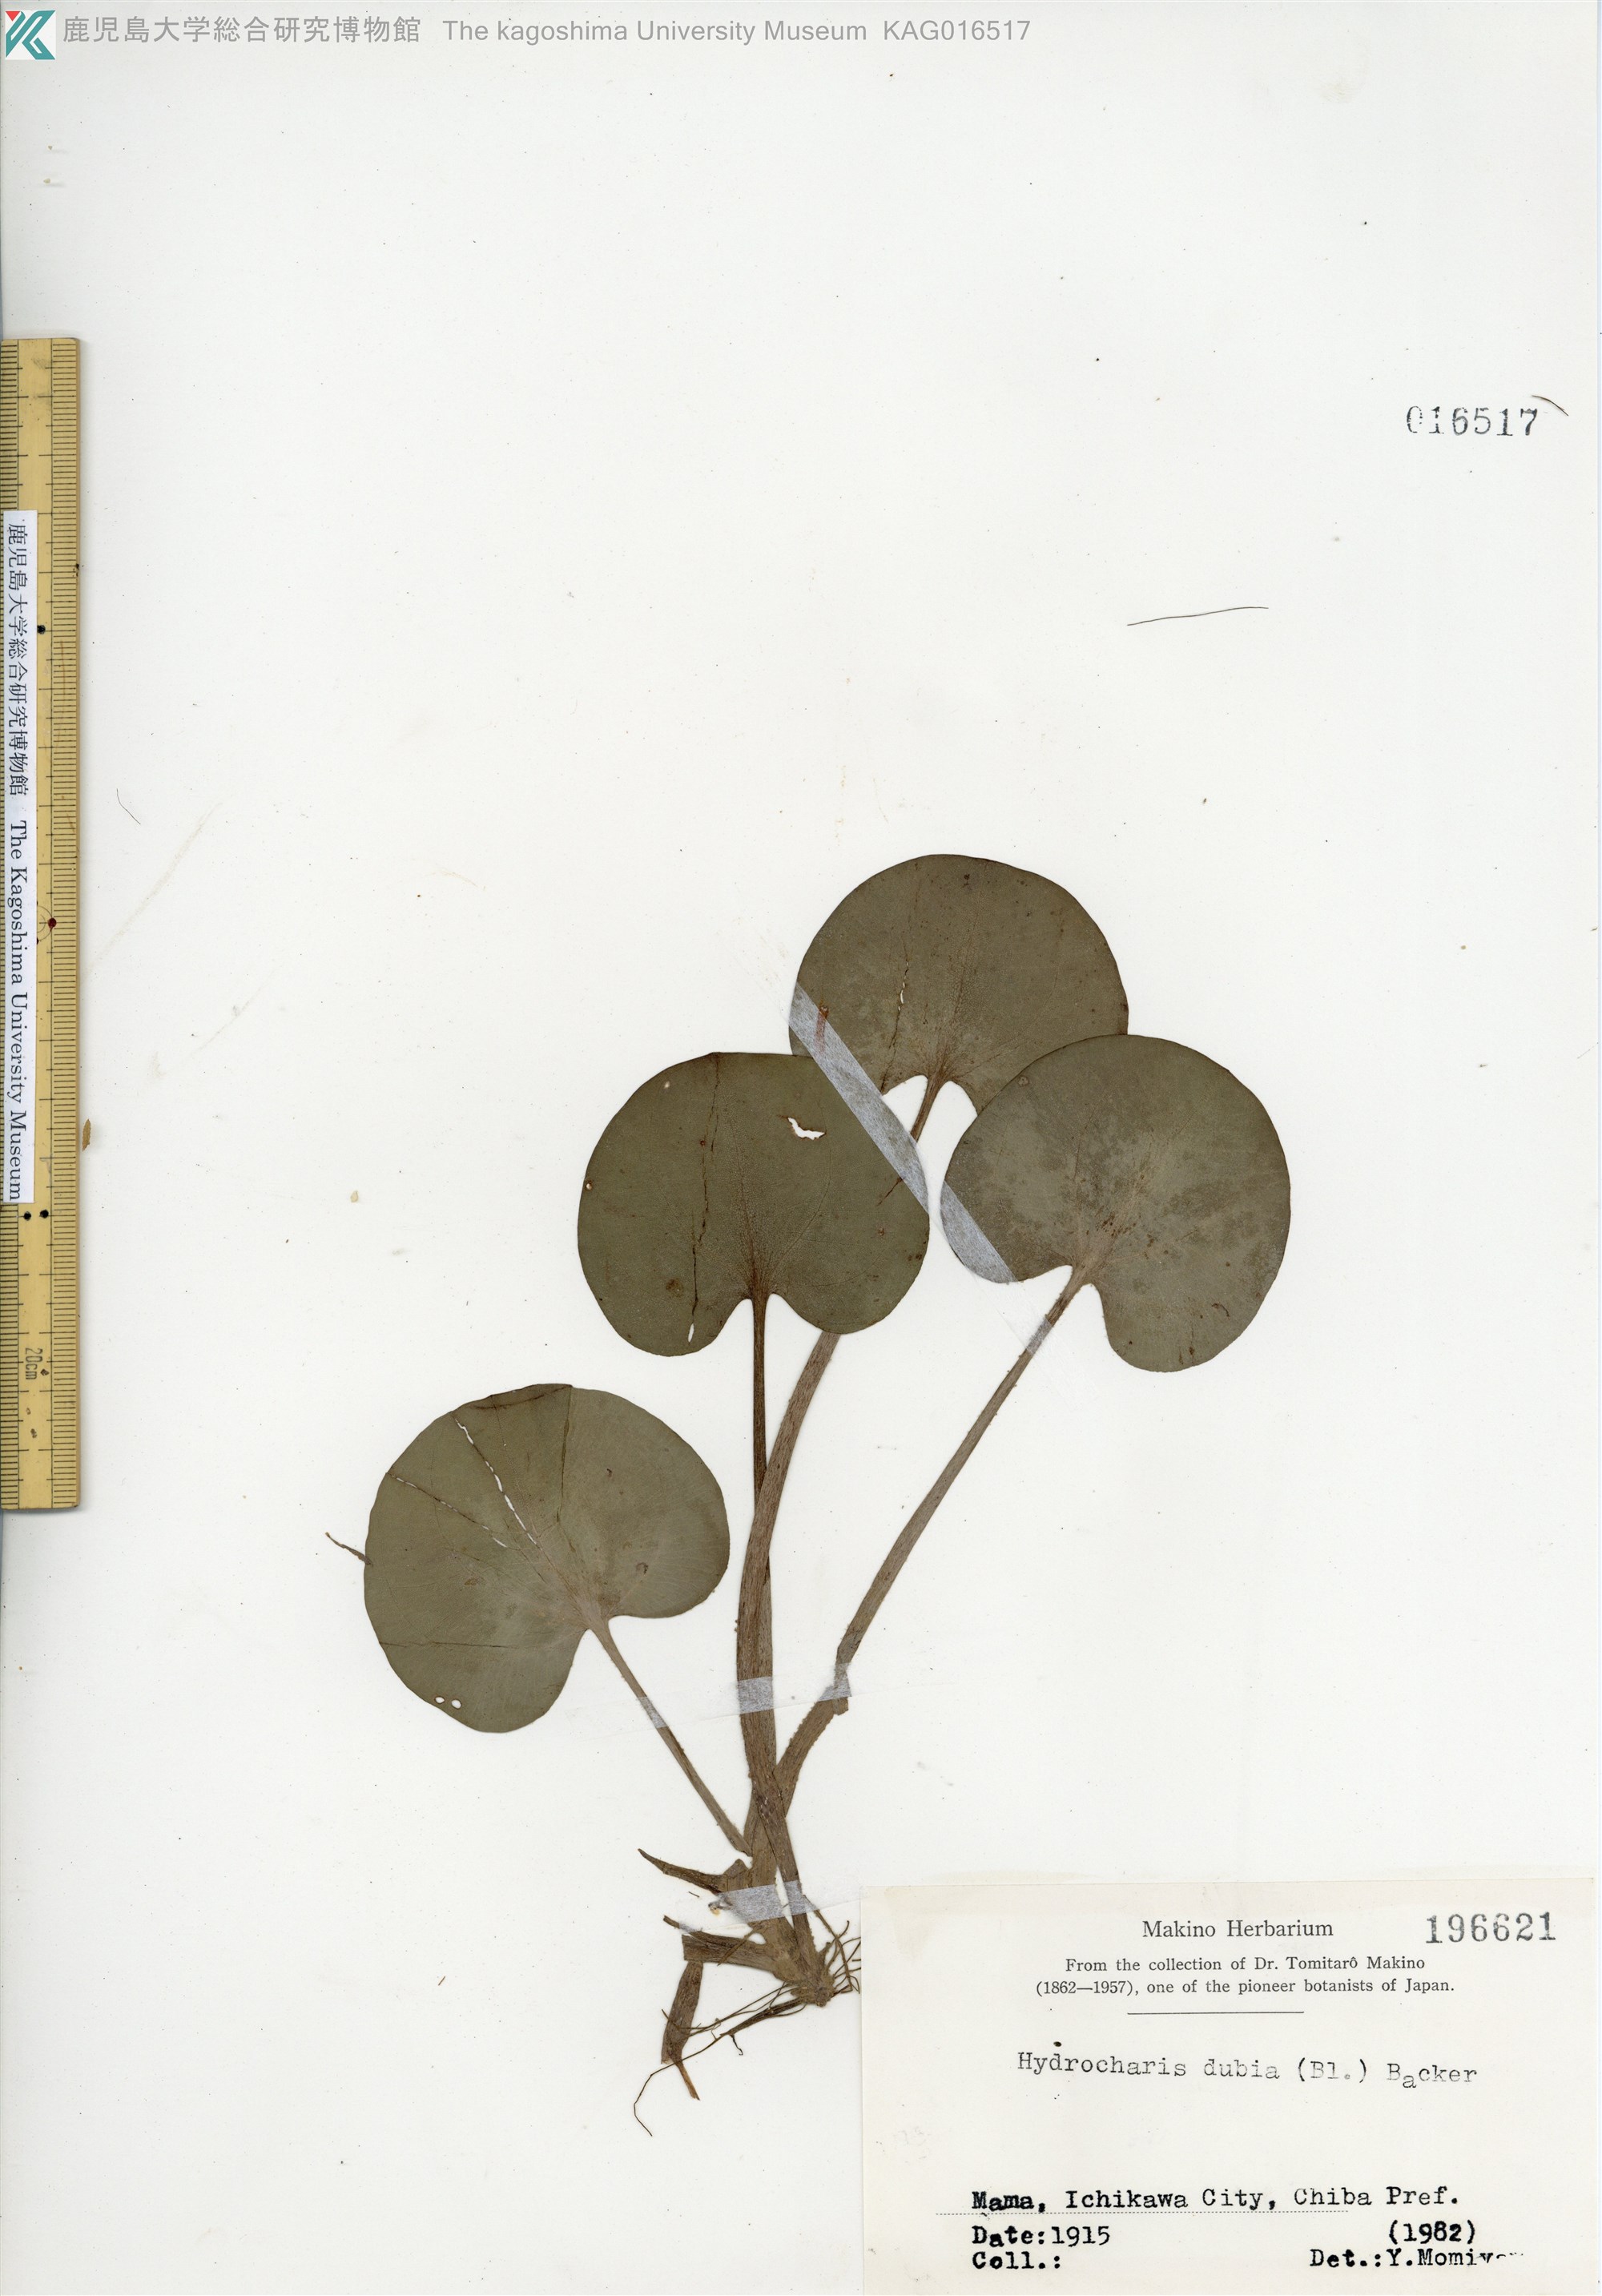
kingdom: Plantae
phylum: Tracheophyta
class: Liliopsida
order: Alismatales
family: Hydrocharitaceae
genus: Hydrocharis
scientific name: Hydrocharis dubia
